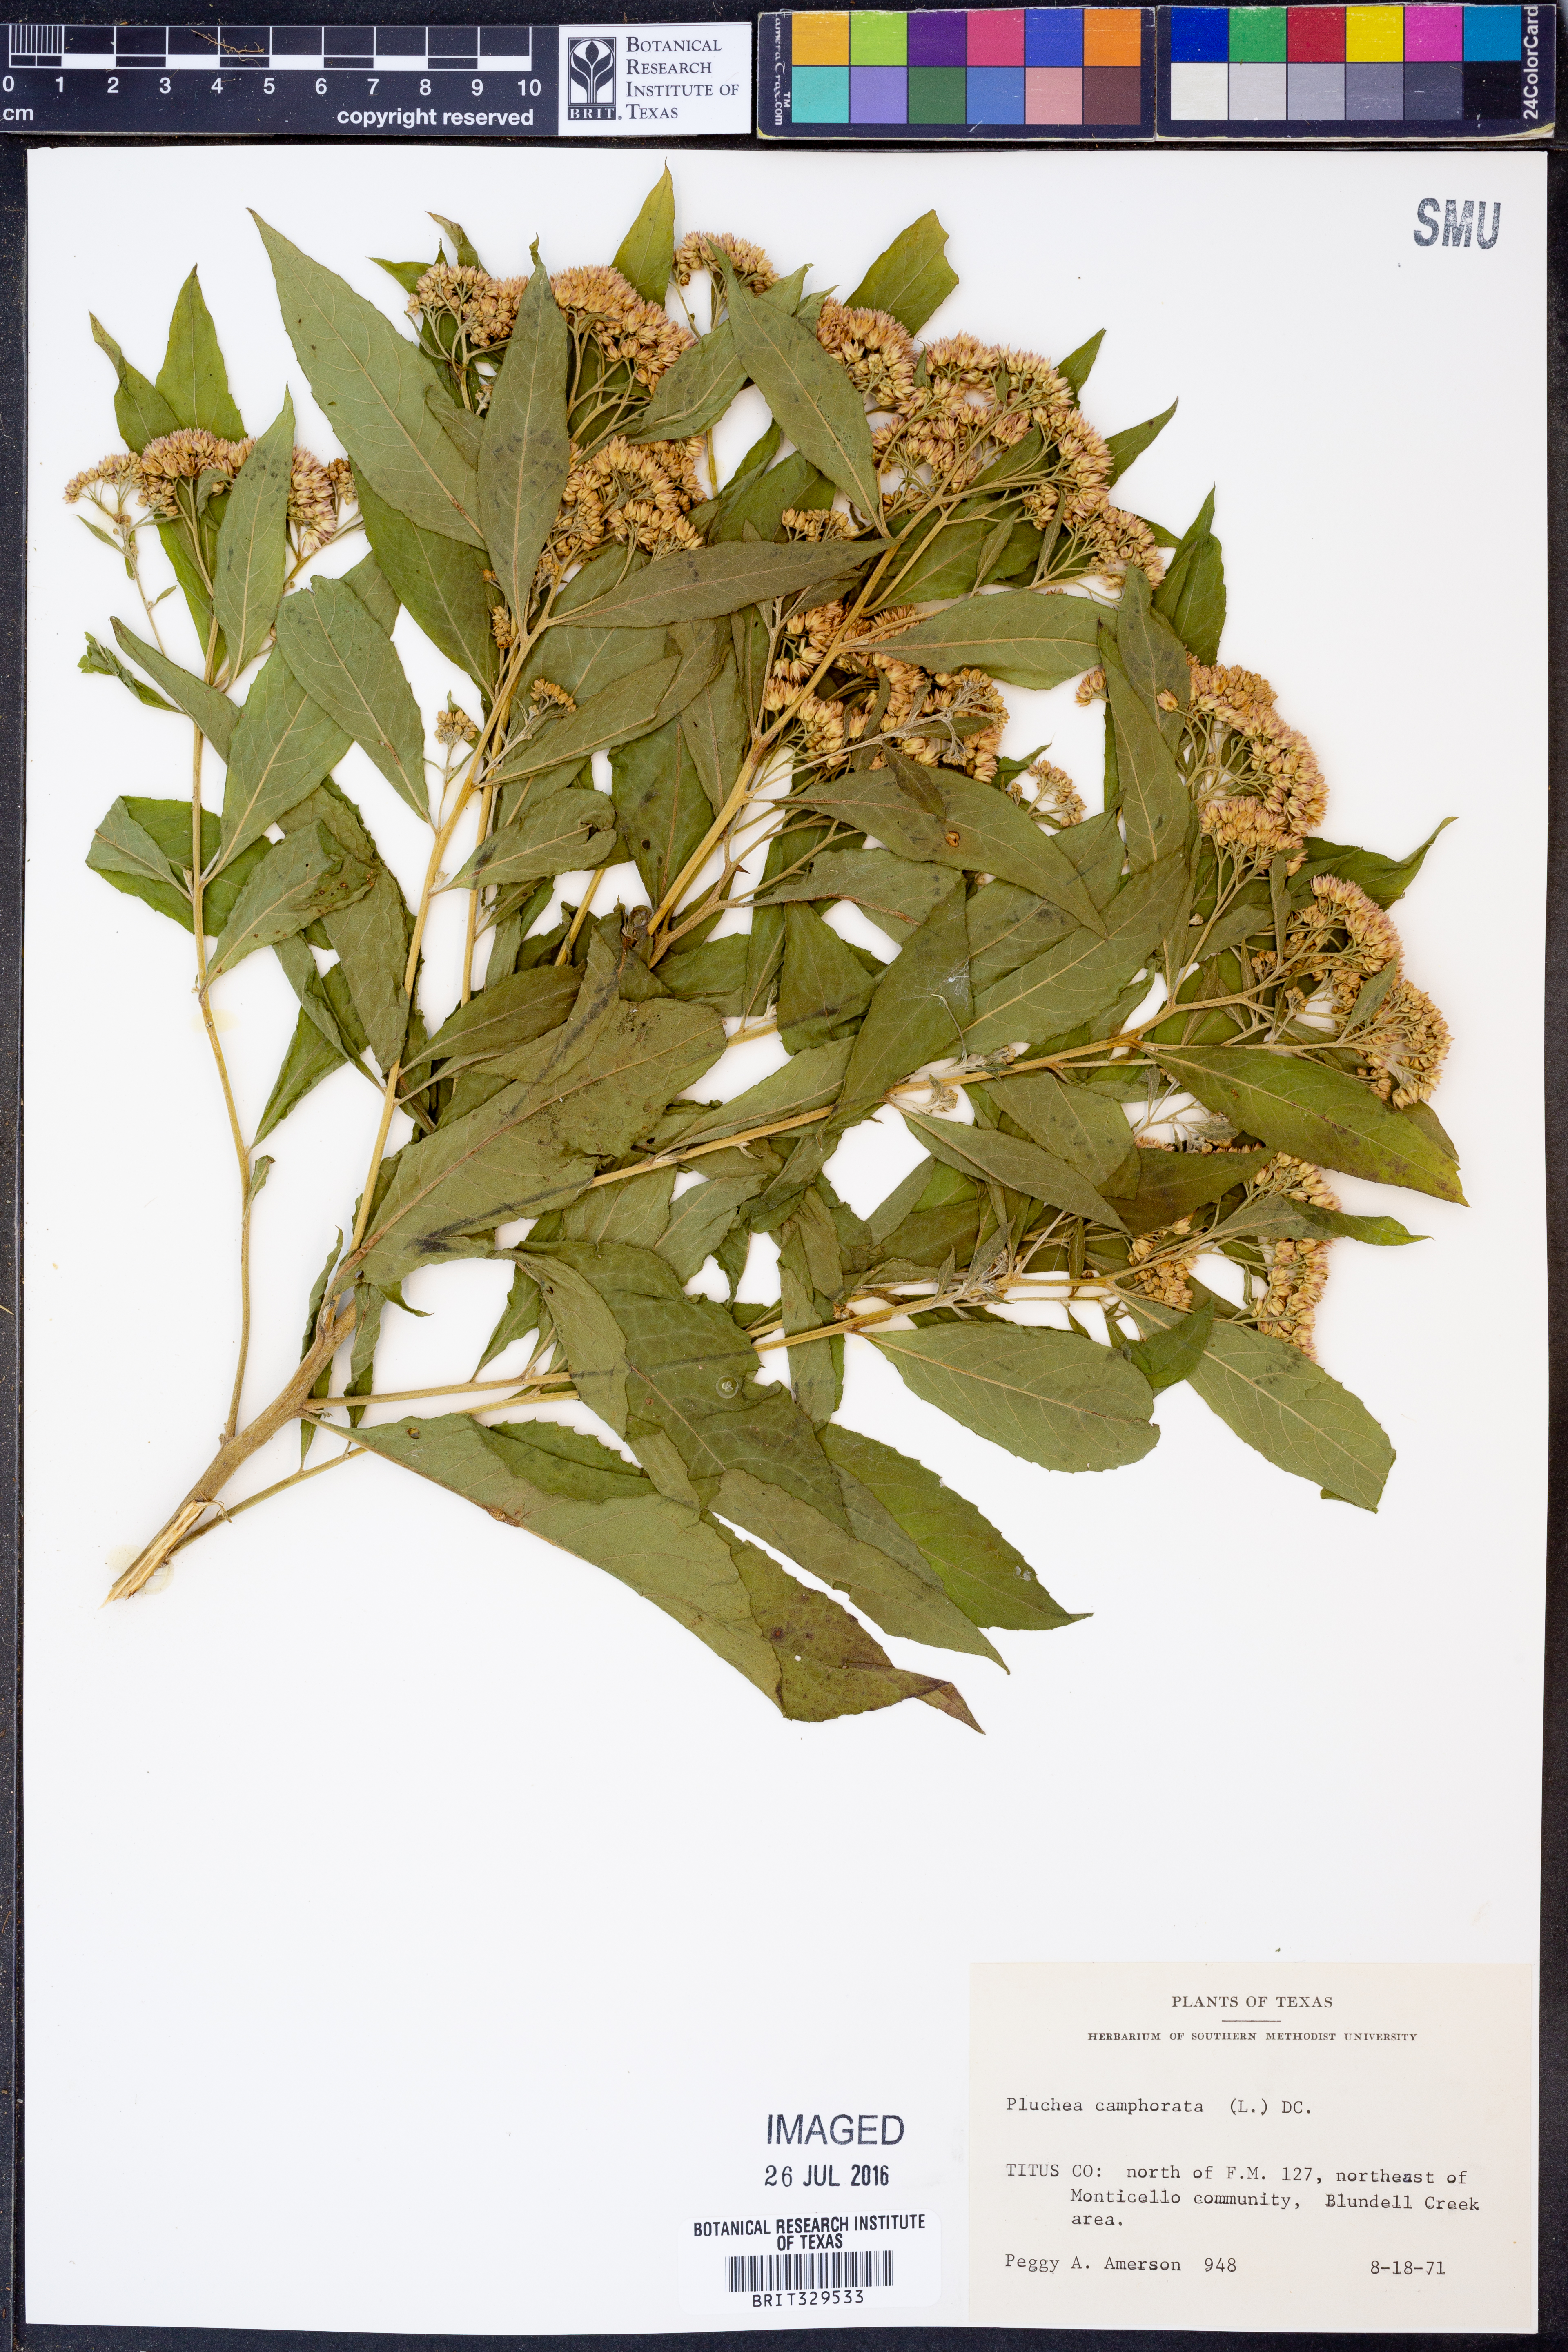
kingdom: Plantae
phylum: Tracheophyta
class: Magnoliopsida
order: Asterales
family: Asteraceae
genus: Pluchea
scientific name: Pluchea camphorata
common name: Camphor pluchea
